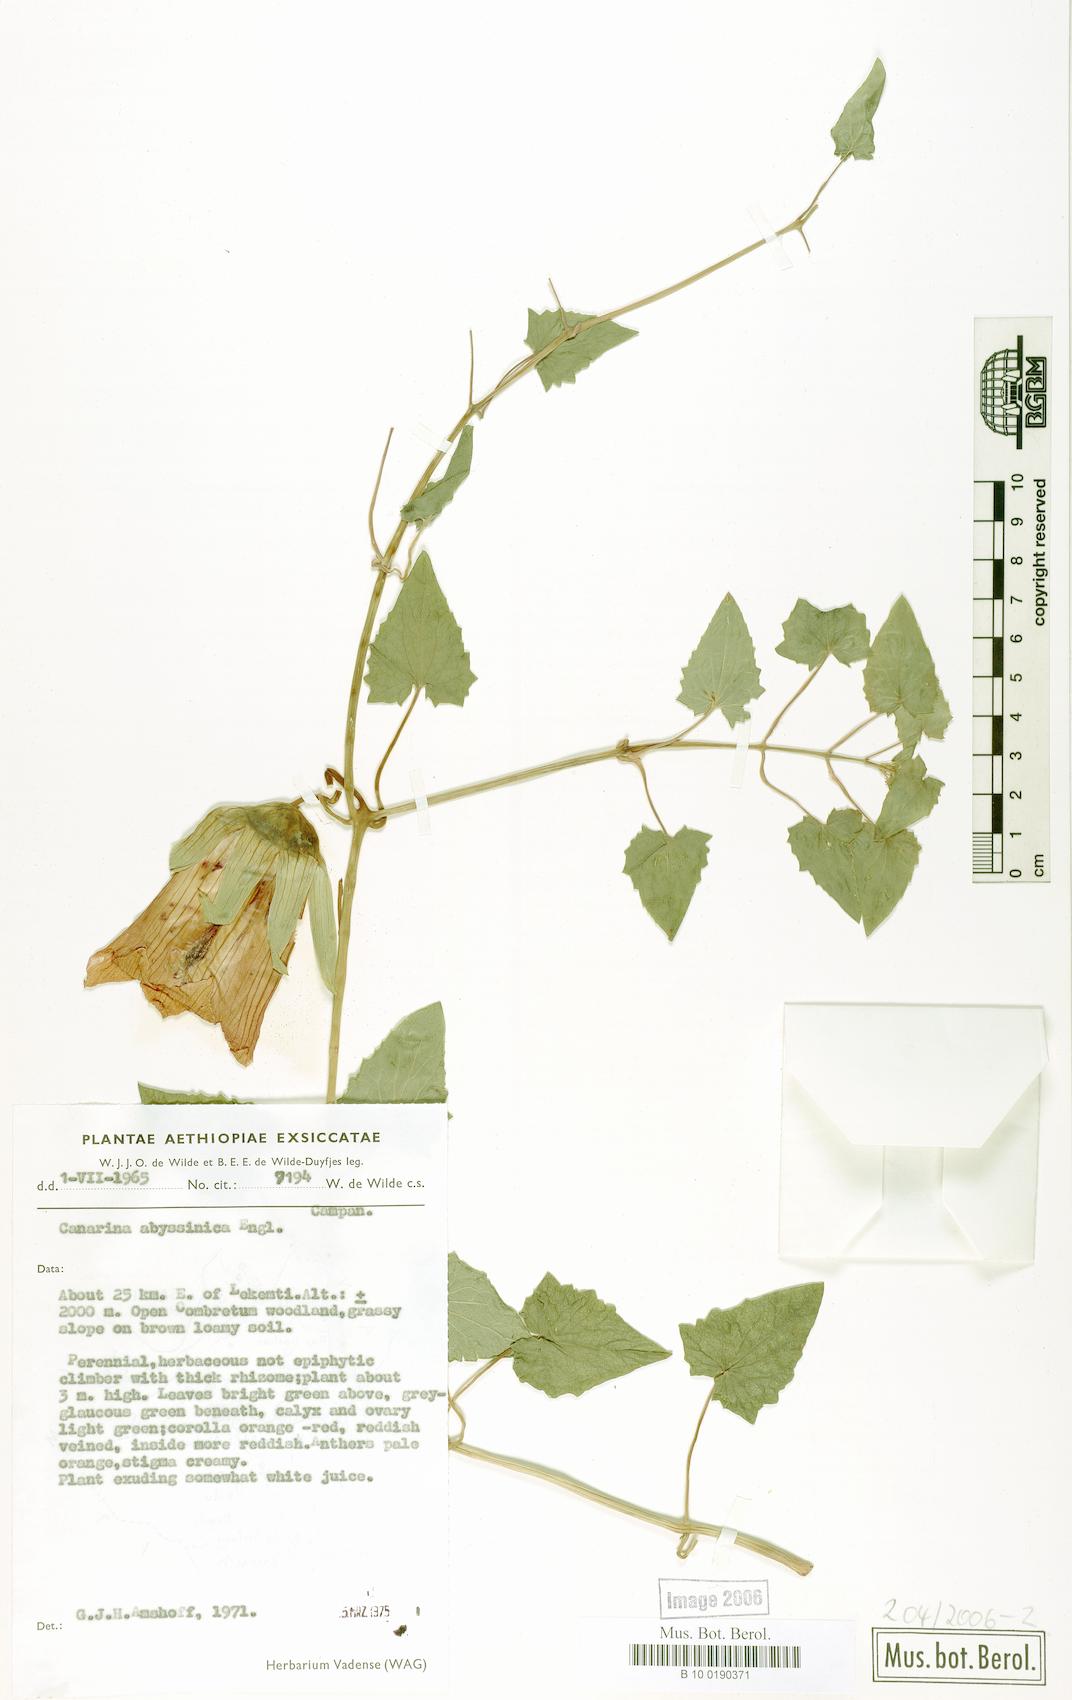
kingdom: Plantae
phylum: Tracheophyta
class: Magnoliopsida
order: Asterales
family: Campanulaceae
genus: Canarina
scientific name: Canarina abyssinica
